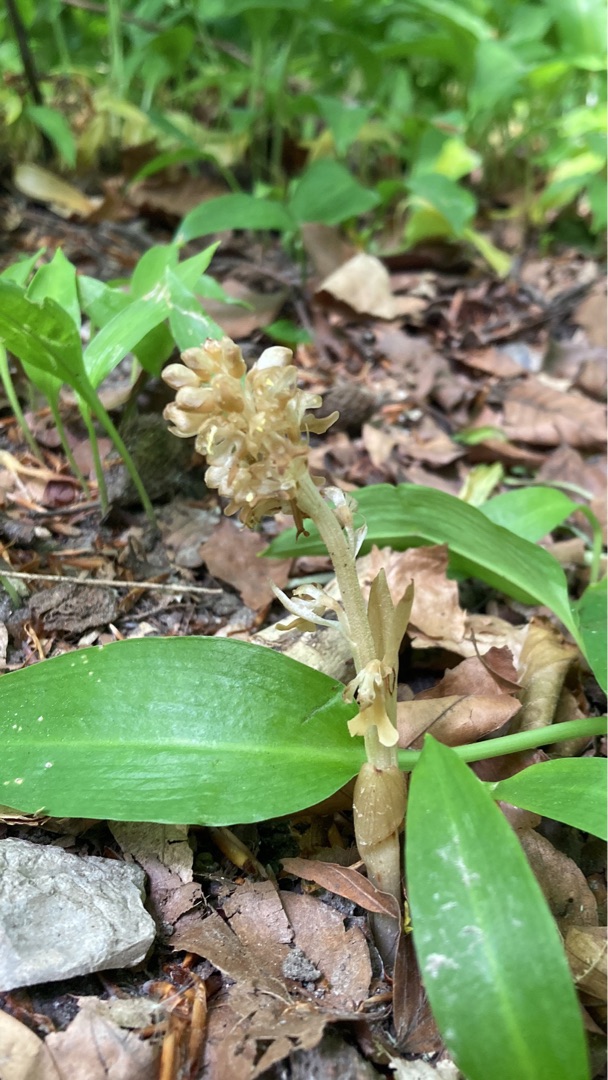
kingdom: Plantae
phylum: Tracheophyta
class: Liliopsida
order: Asparagales
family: Orchidaceae
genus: Neottia
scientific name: Neottia nidus-avis
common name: Rederod
